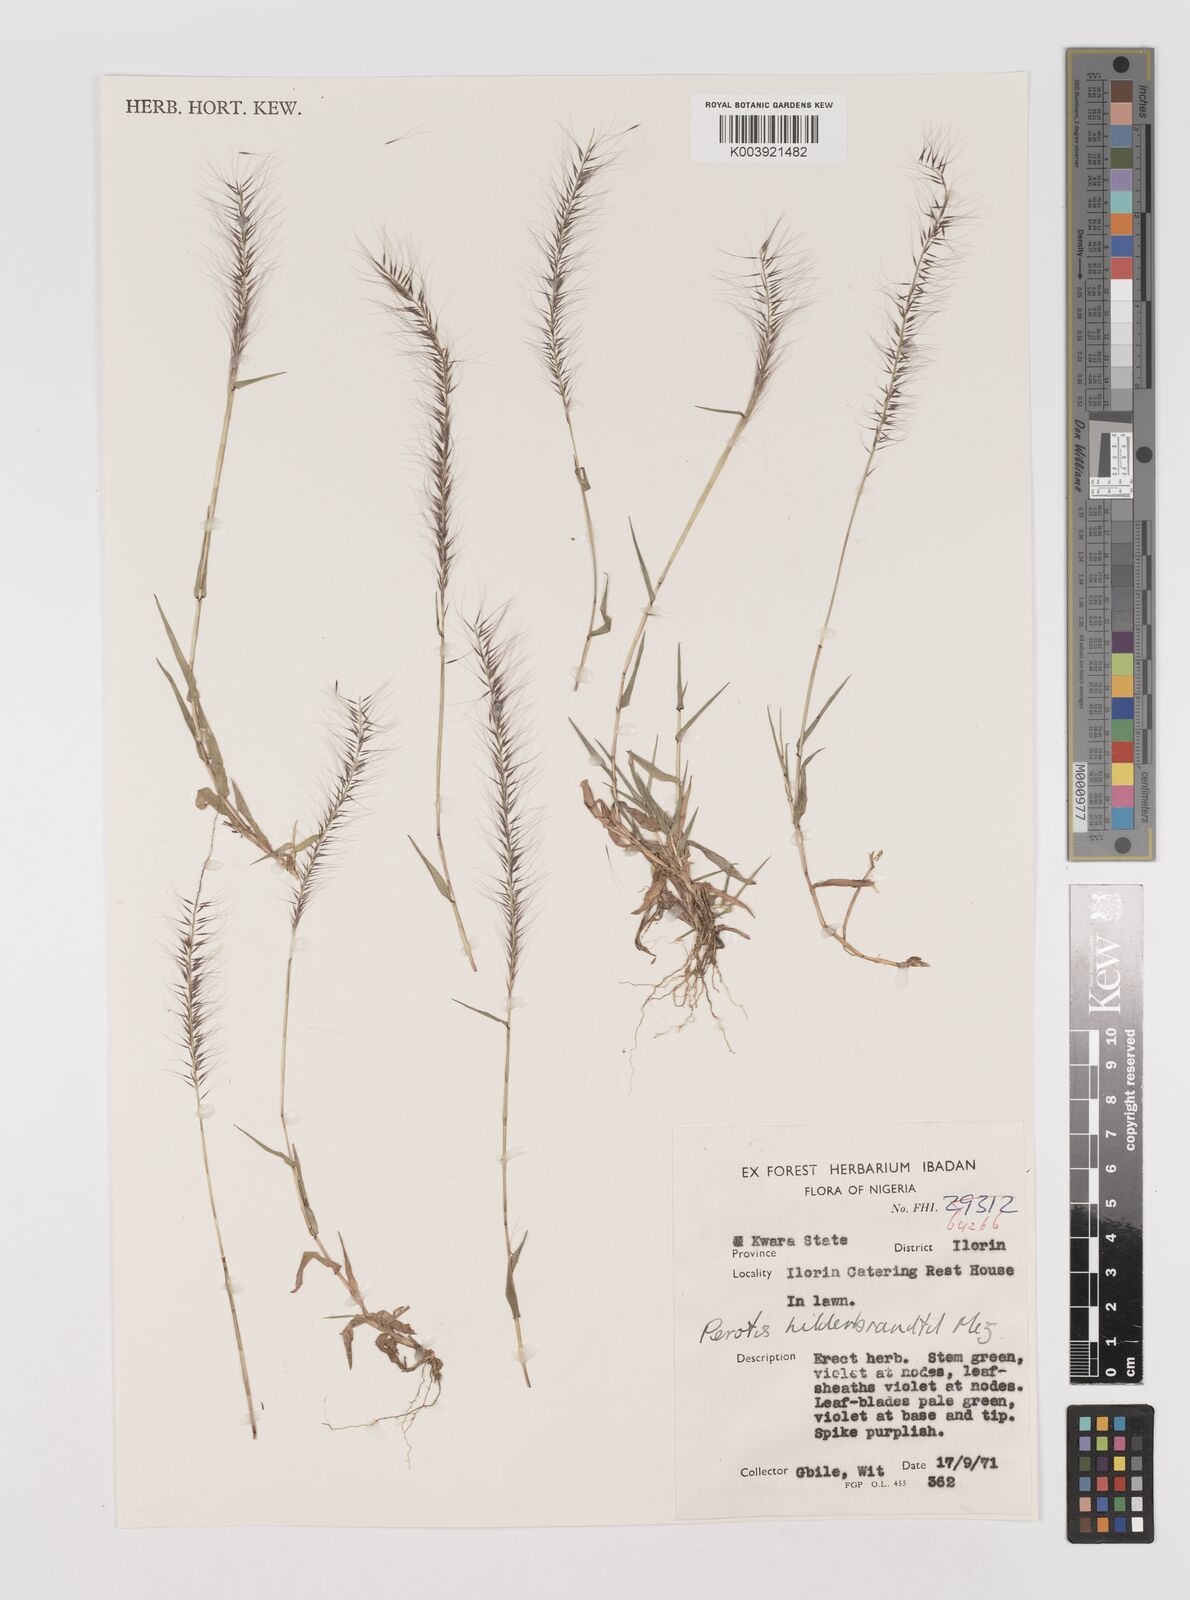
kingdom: Plantae
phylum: Tracheophyta
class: Liliopsida
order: Poales
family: Poaceae
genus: Perotis
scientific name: Perotis hildebrandtii
